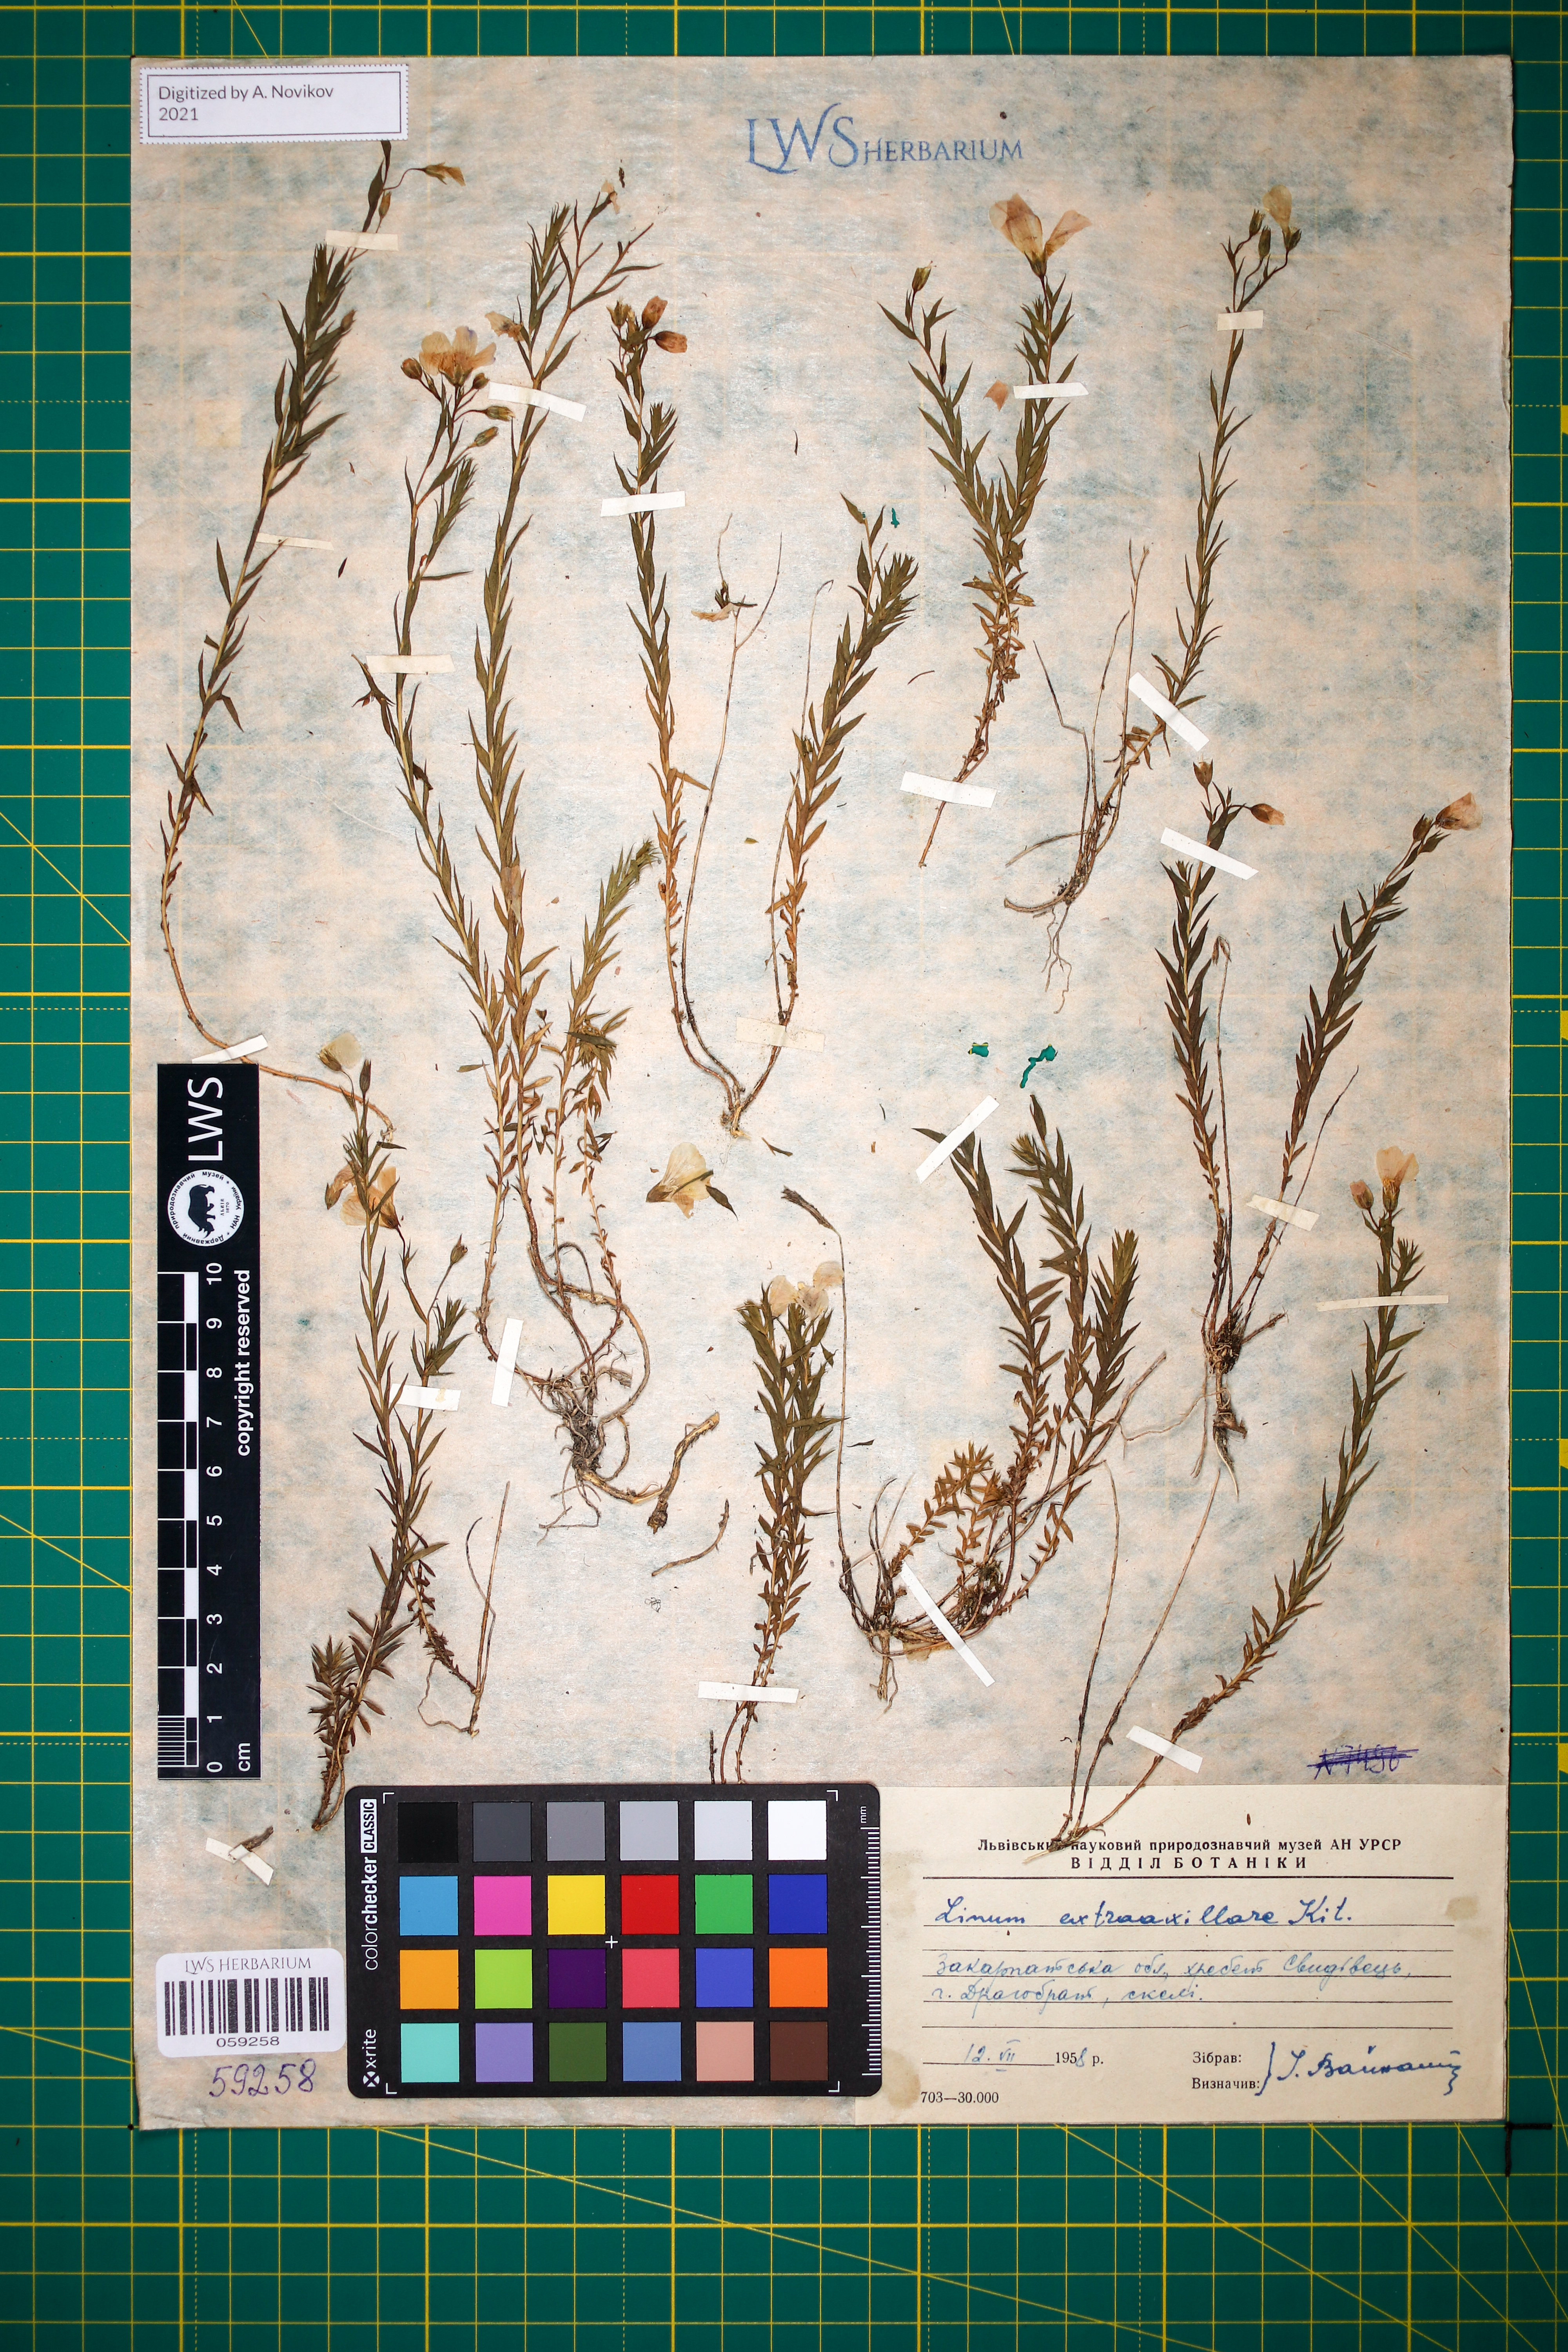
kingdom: Plantae
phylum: Tracheophyta
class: Magnoliopsida
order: Malpighiales
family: Linaceae
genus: Linum
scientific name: Linum perenne
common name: Blue flax
